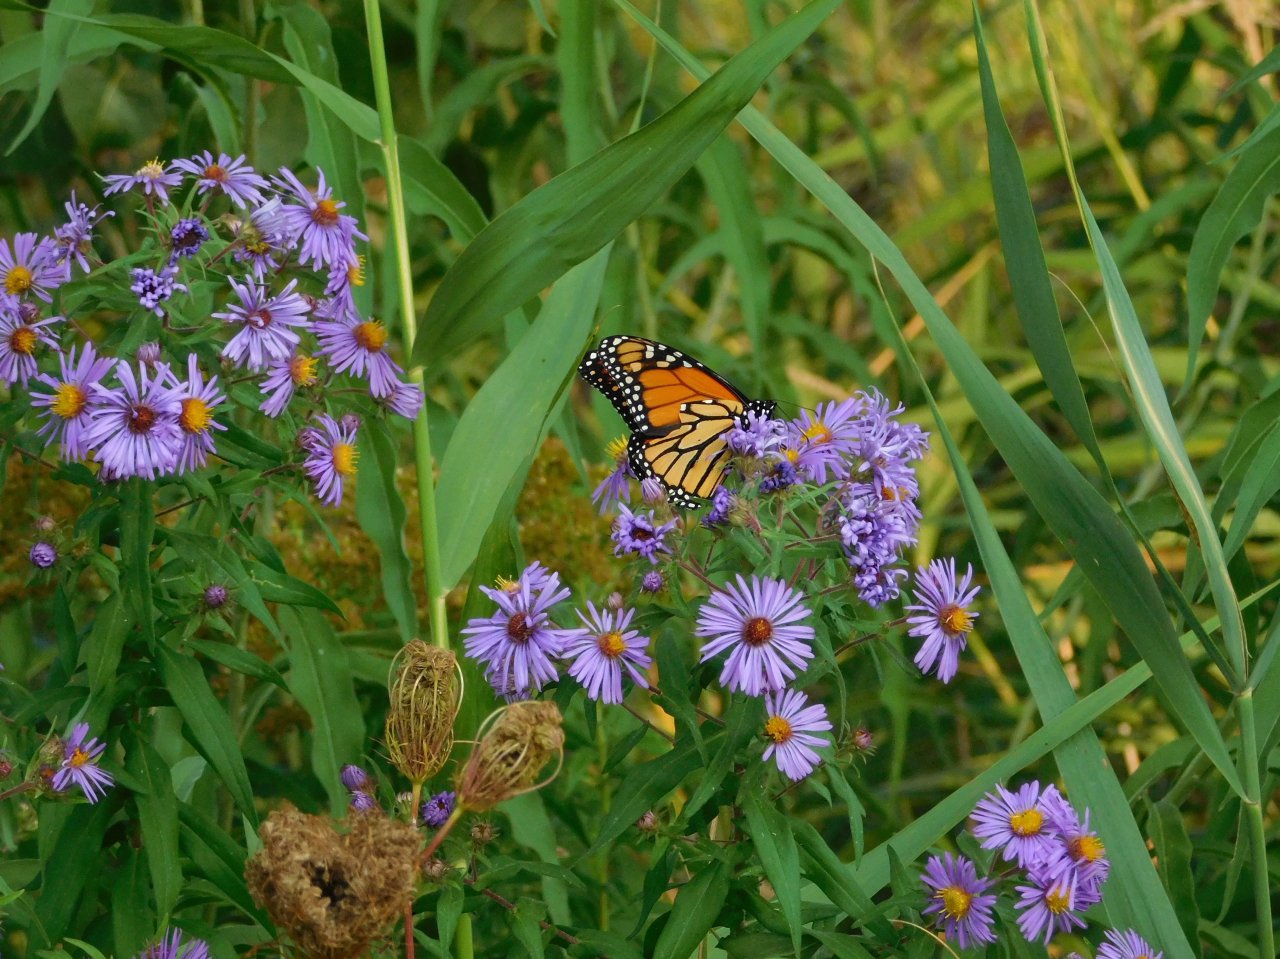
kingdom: Animalia
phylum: Arthropoda
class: Insecta
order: Lepidoptera
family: Nymphalidae
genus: Danaus
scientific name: Danaus plexippus
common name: Monarch
